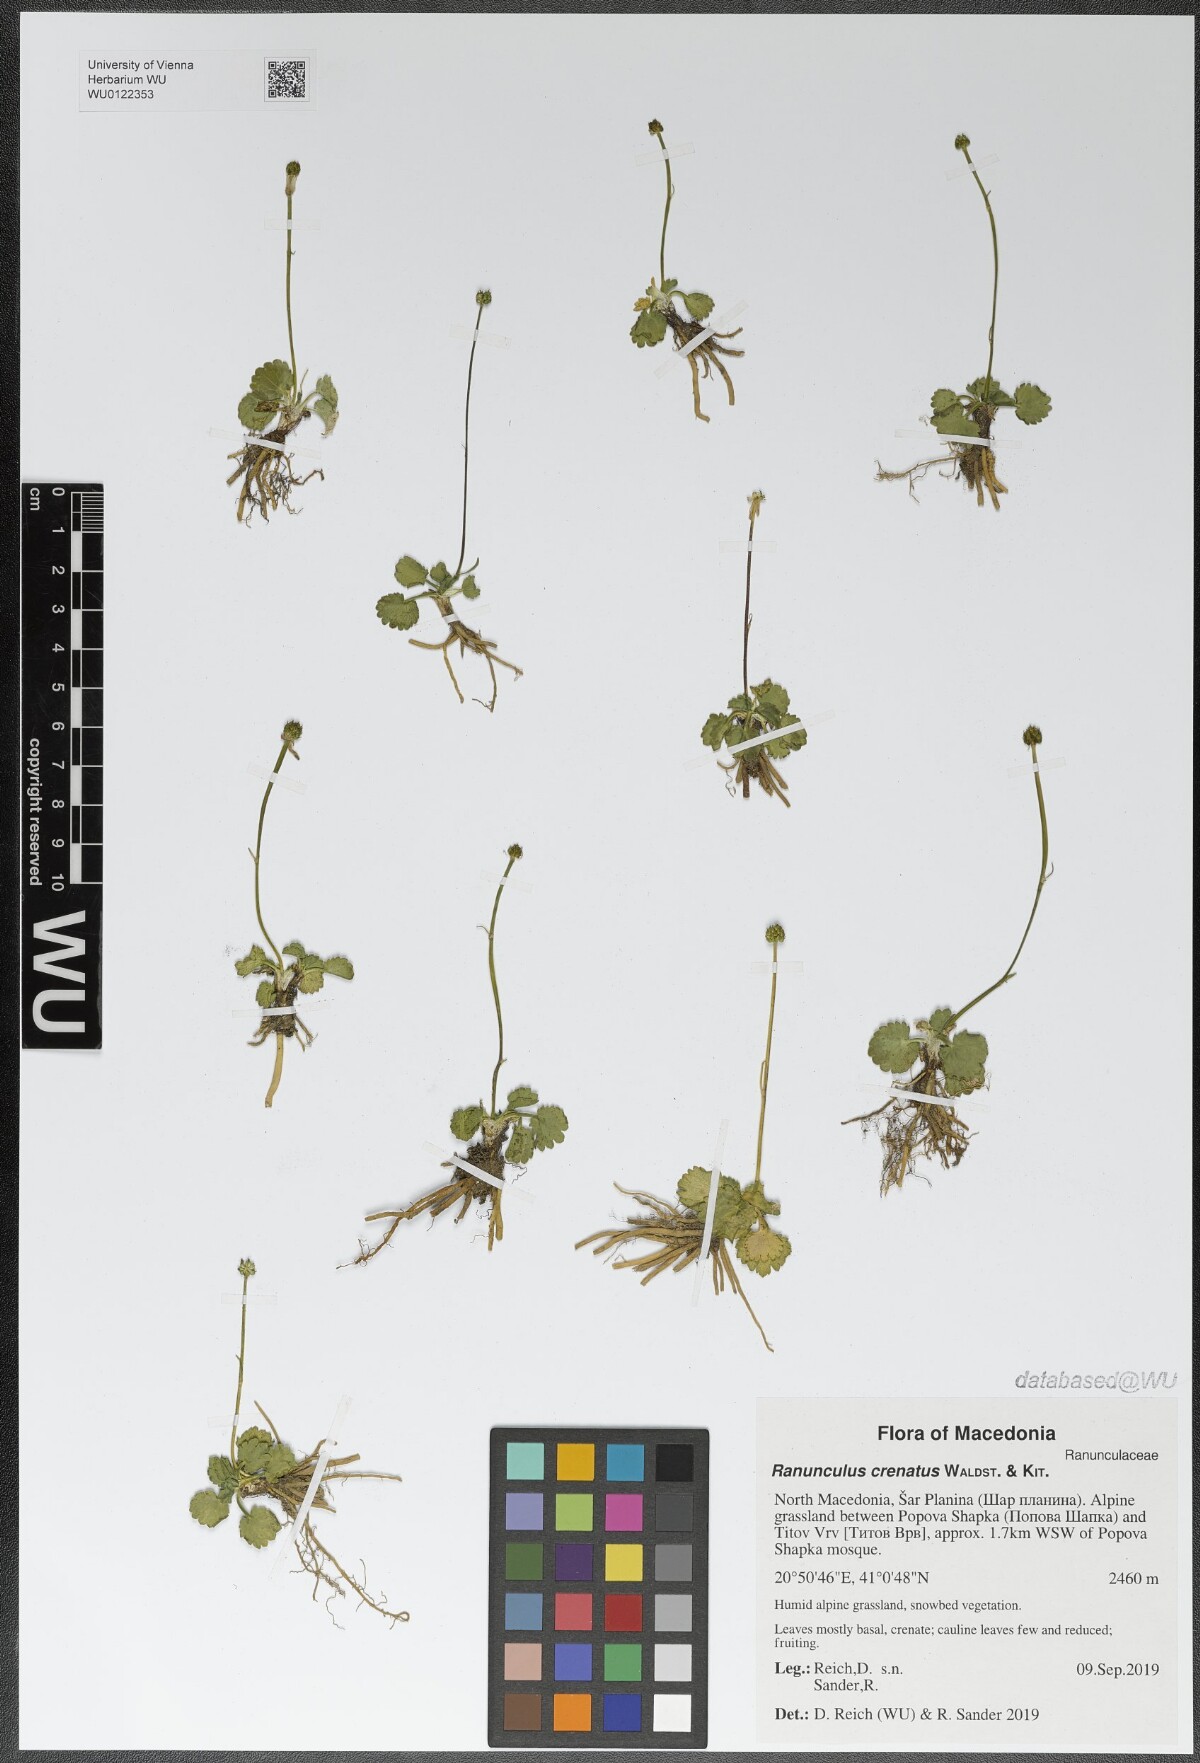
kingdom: Plantae
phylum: Tracheophyta
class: Magnoliopsida
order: Ranunculales
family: Ranunculaceae
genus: Ranunculus
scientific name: Ranunculus crenatus
